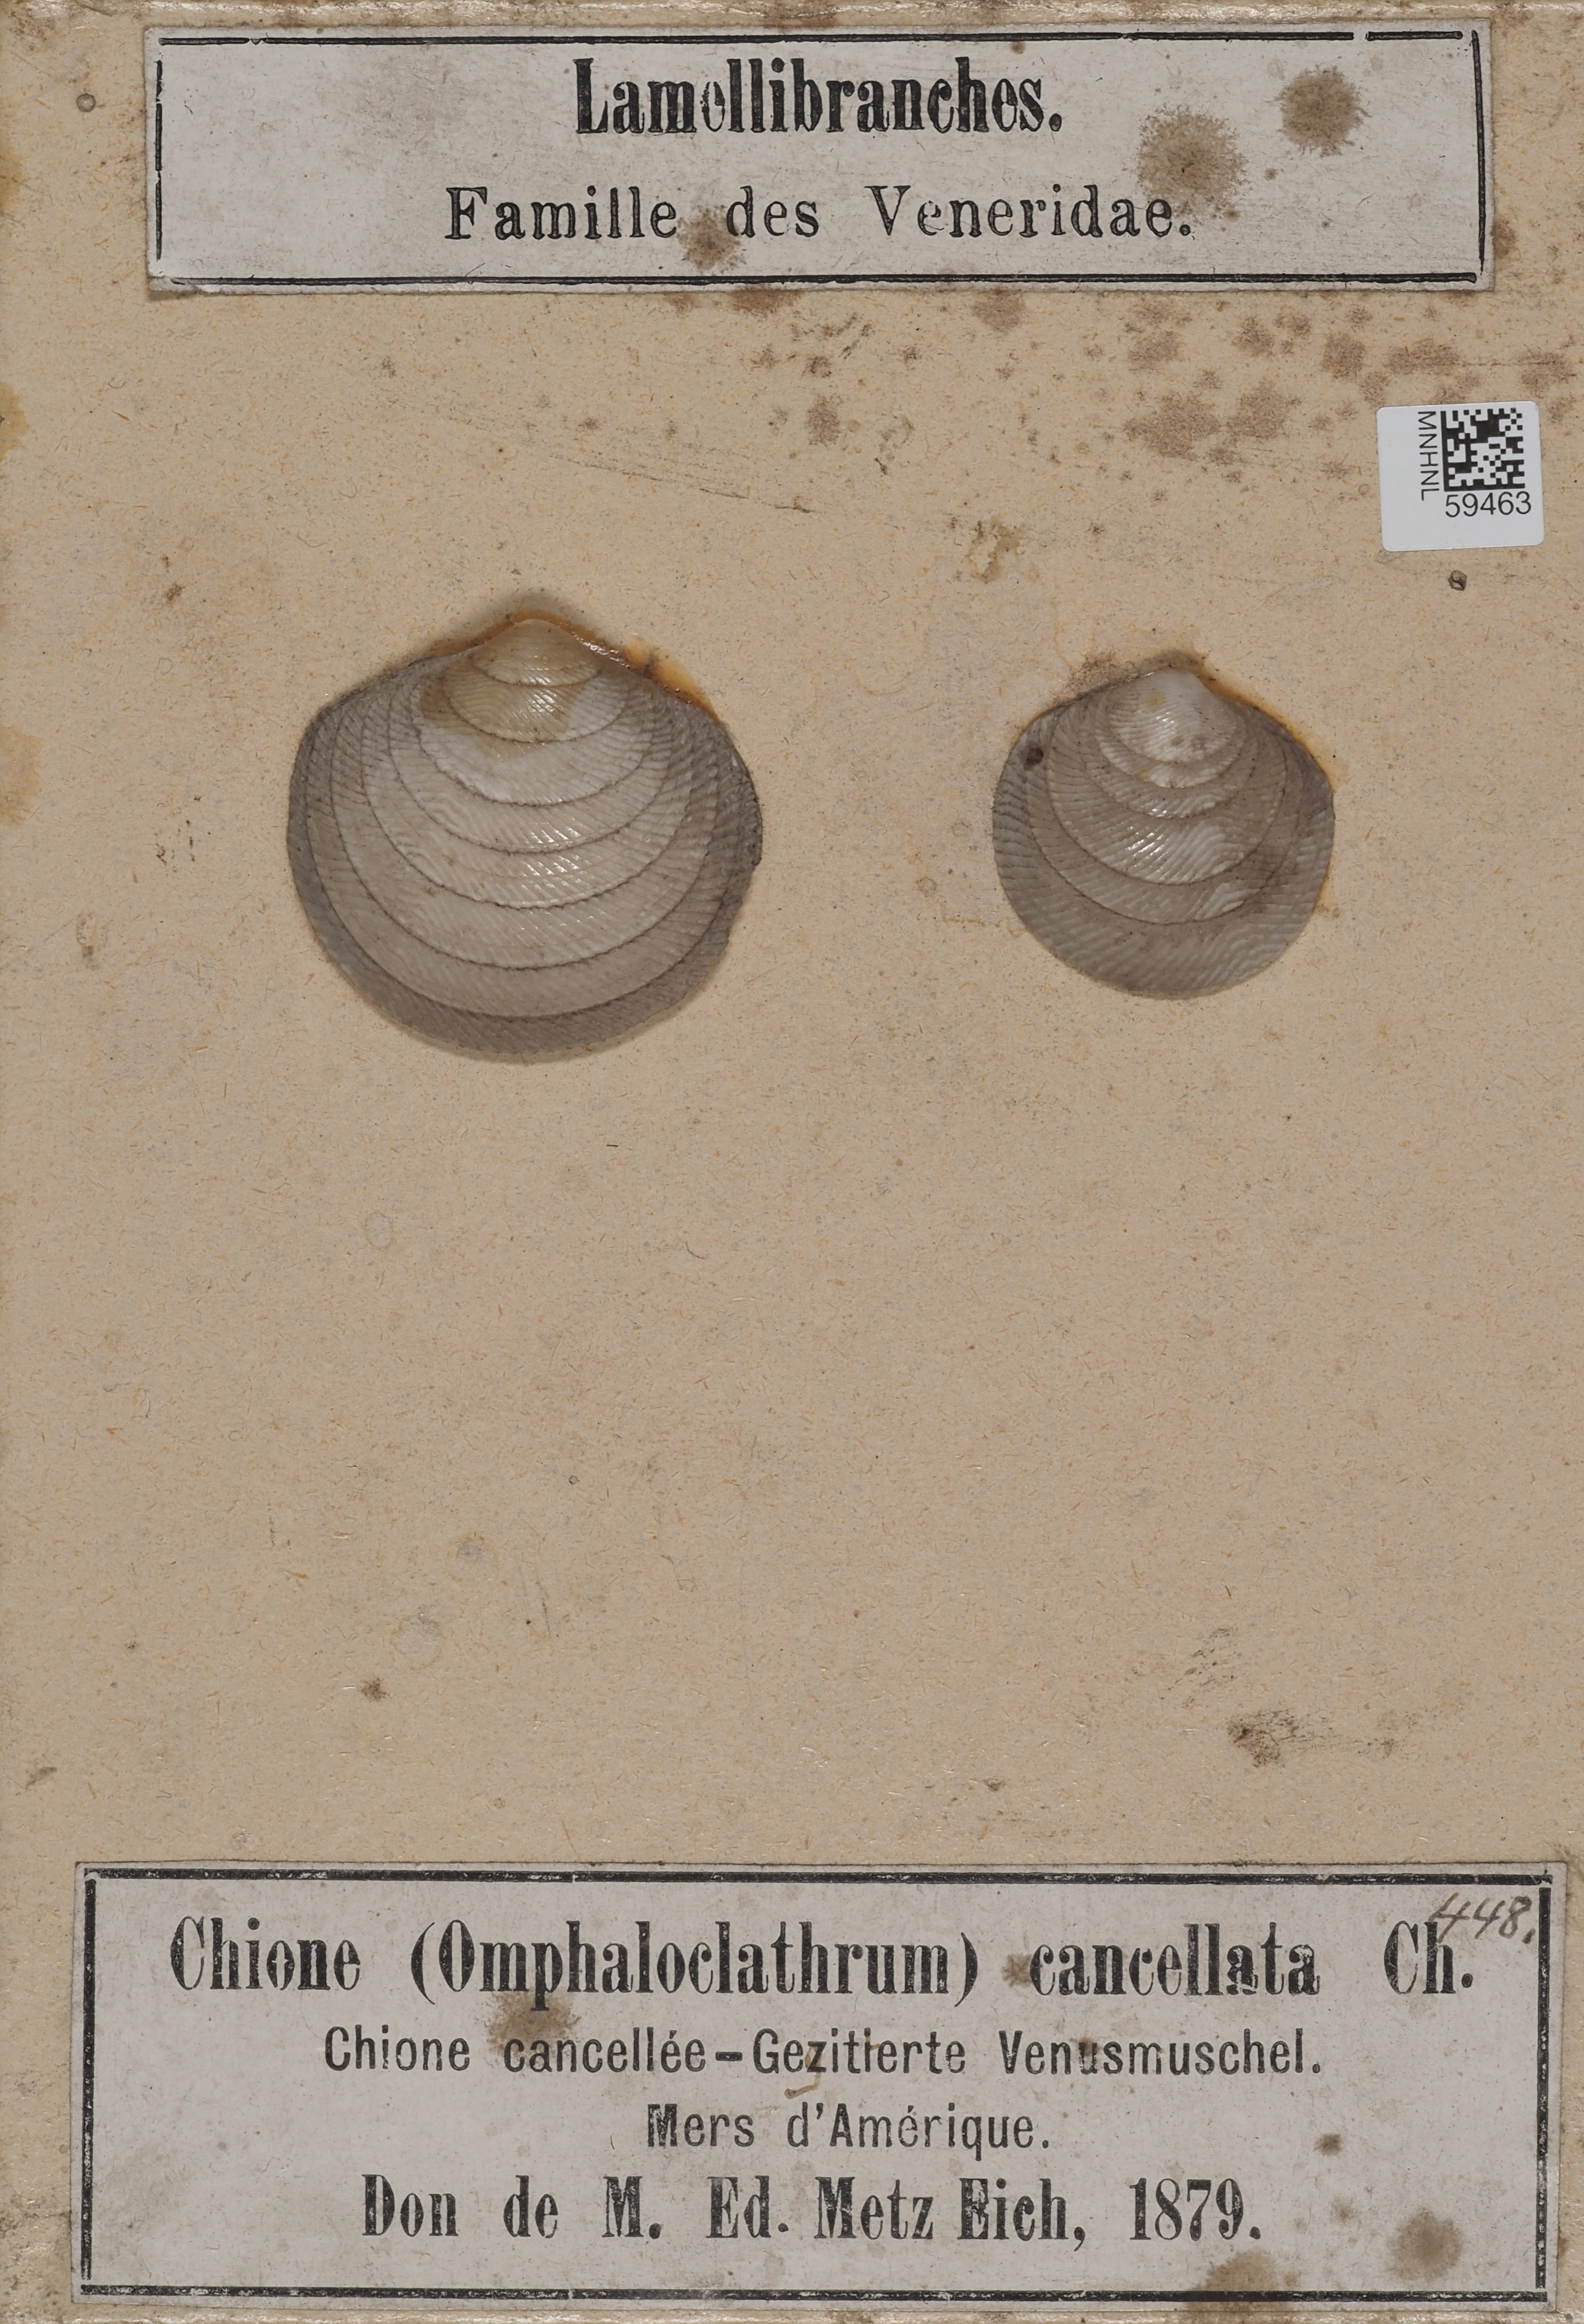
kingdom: Animalia
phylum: Mollusca
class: Bivalvia
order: Venerida
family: Veneridae
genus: Chione
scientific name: Chione cancellata
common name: Cross-barred venus
